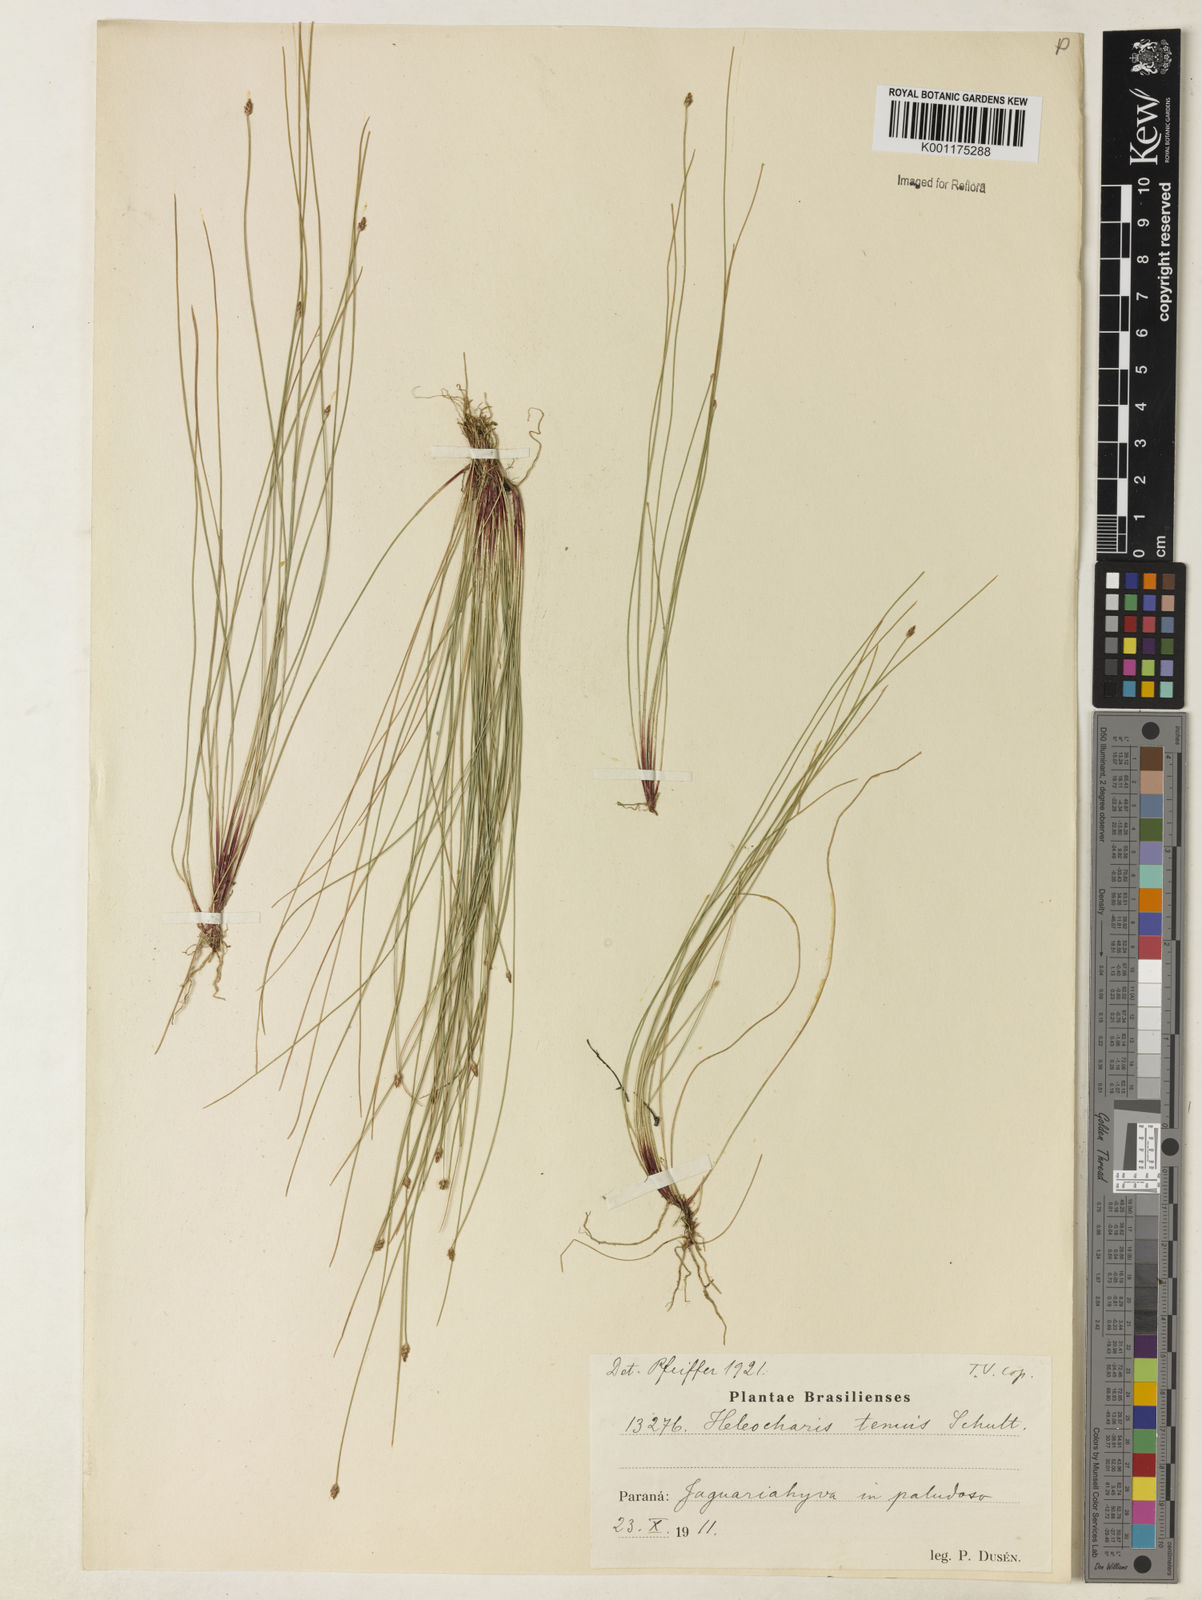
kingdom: Plantae
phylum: Tracheophyta
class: Liliopsida
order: Poales
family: Cyperaceae
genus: Eleocharis
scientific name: Eleocharis tenuis
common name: Dog's hair
